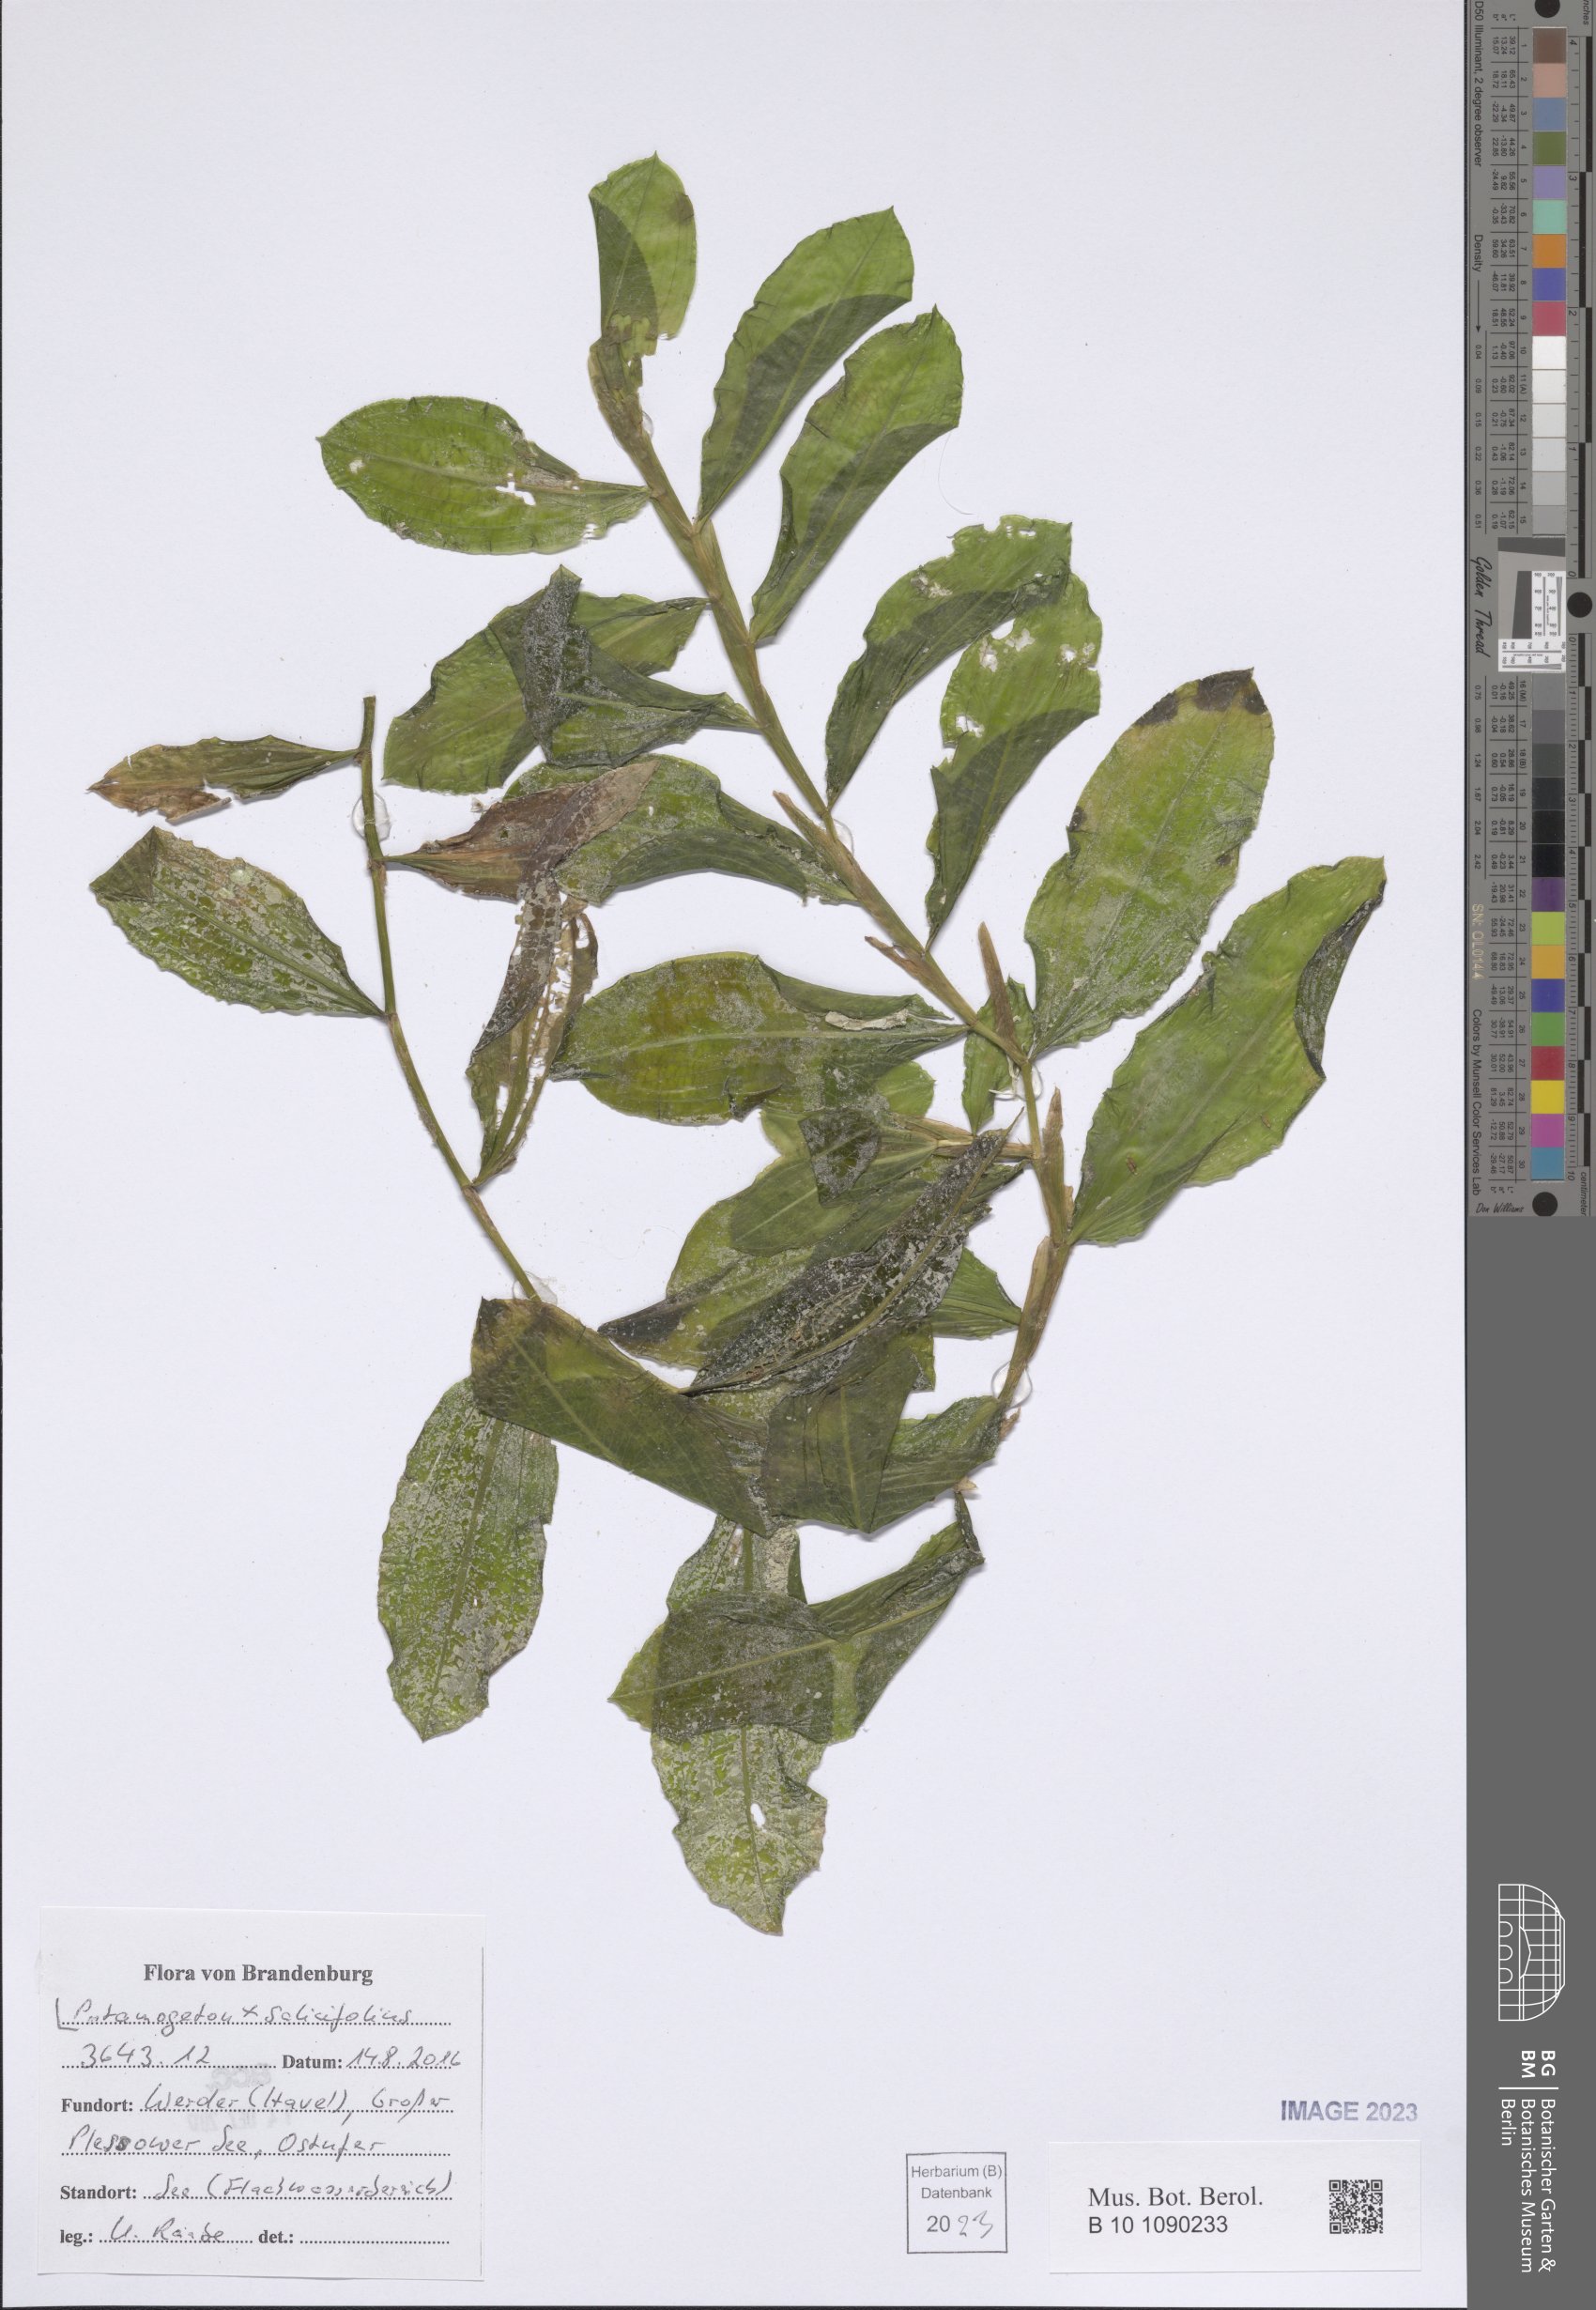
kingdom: Plantae
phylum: Tracheophyta
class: Liliopsida
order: Alismatales
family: Potamogetonaceae
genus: Potamogeton
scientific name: Potamogeton salicifolius
